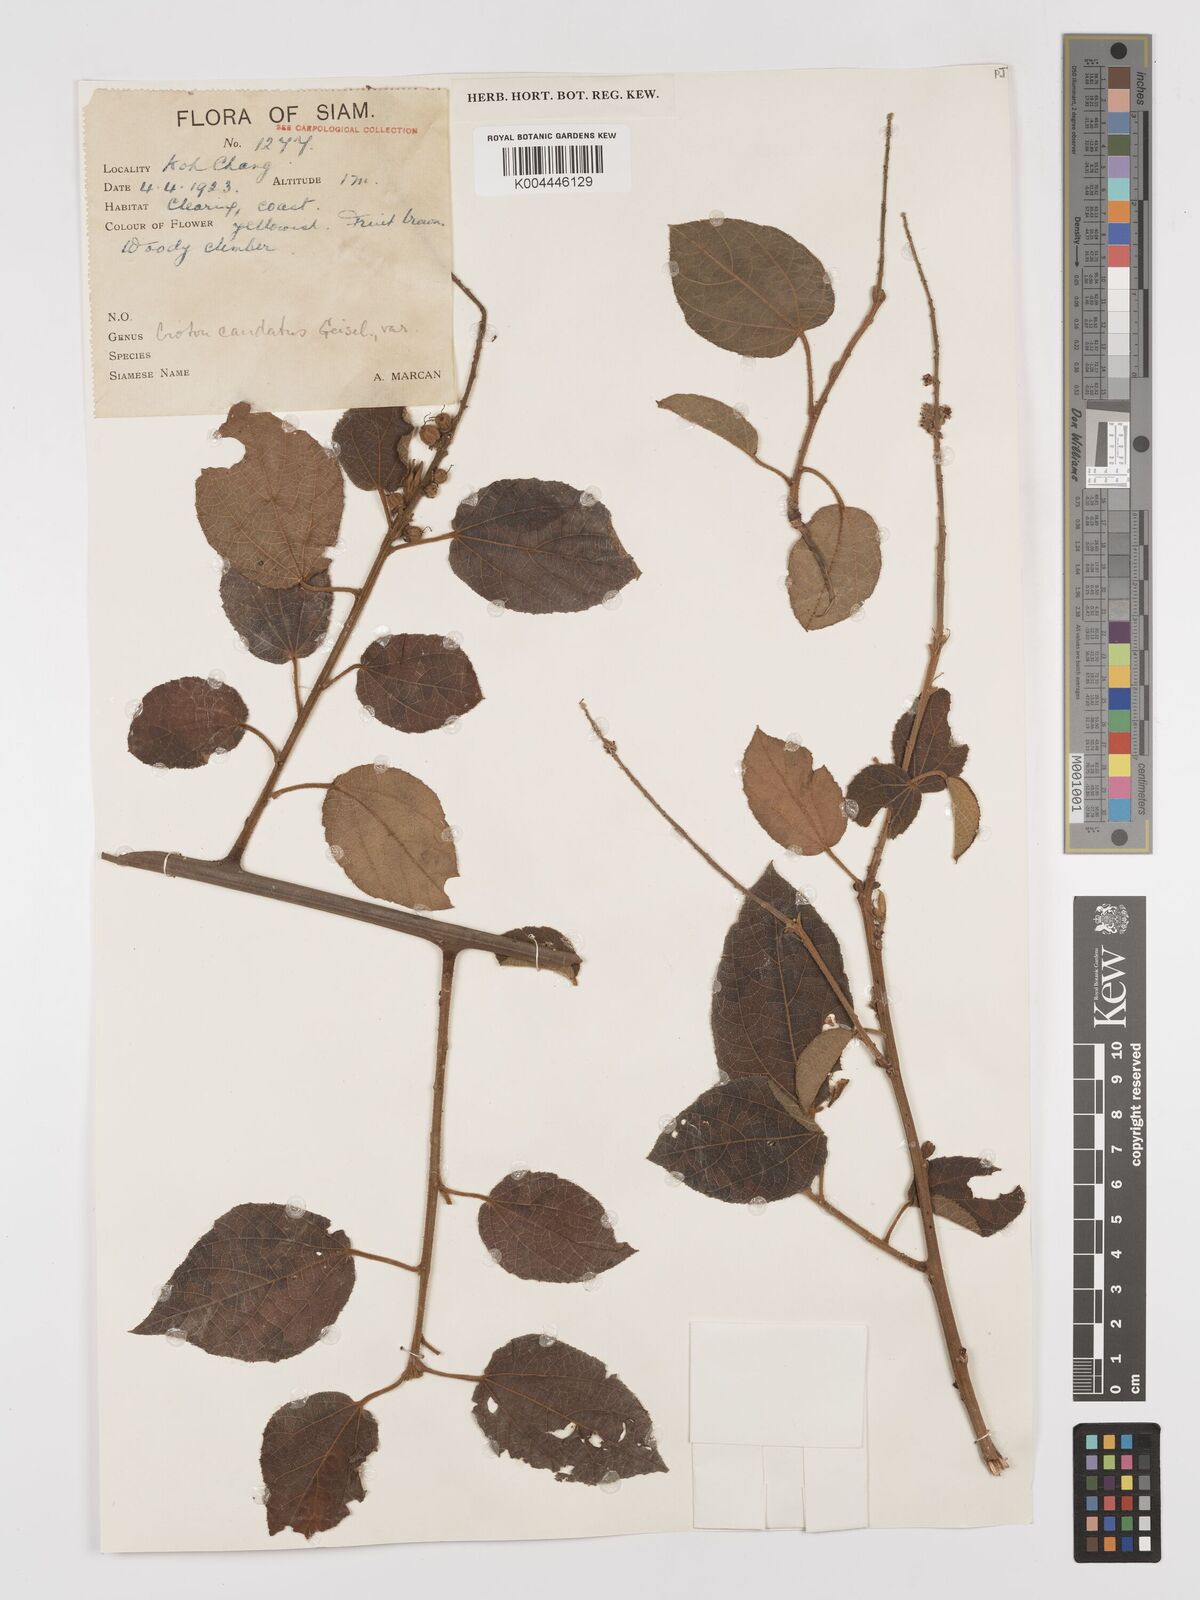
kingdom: Plantae
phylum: Tracheophyta
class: Magnoliopsida
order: Malpighiales
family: Euphorbiaceae
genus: Croton
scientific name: Croton caudatus
